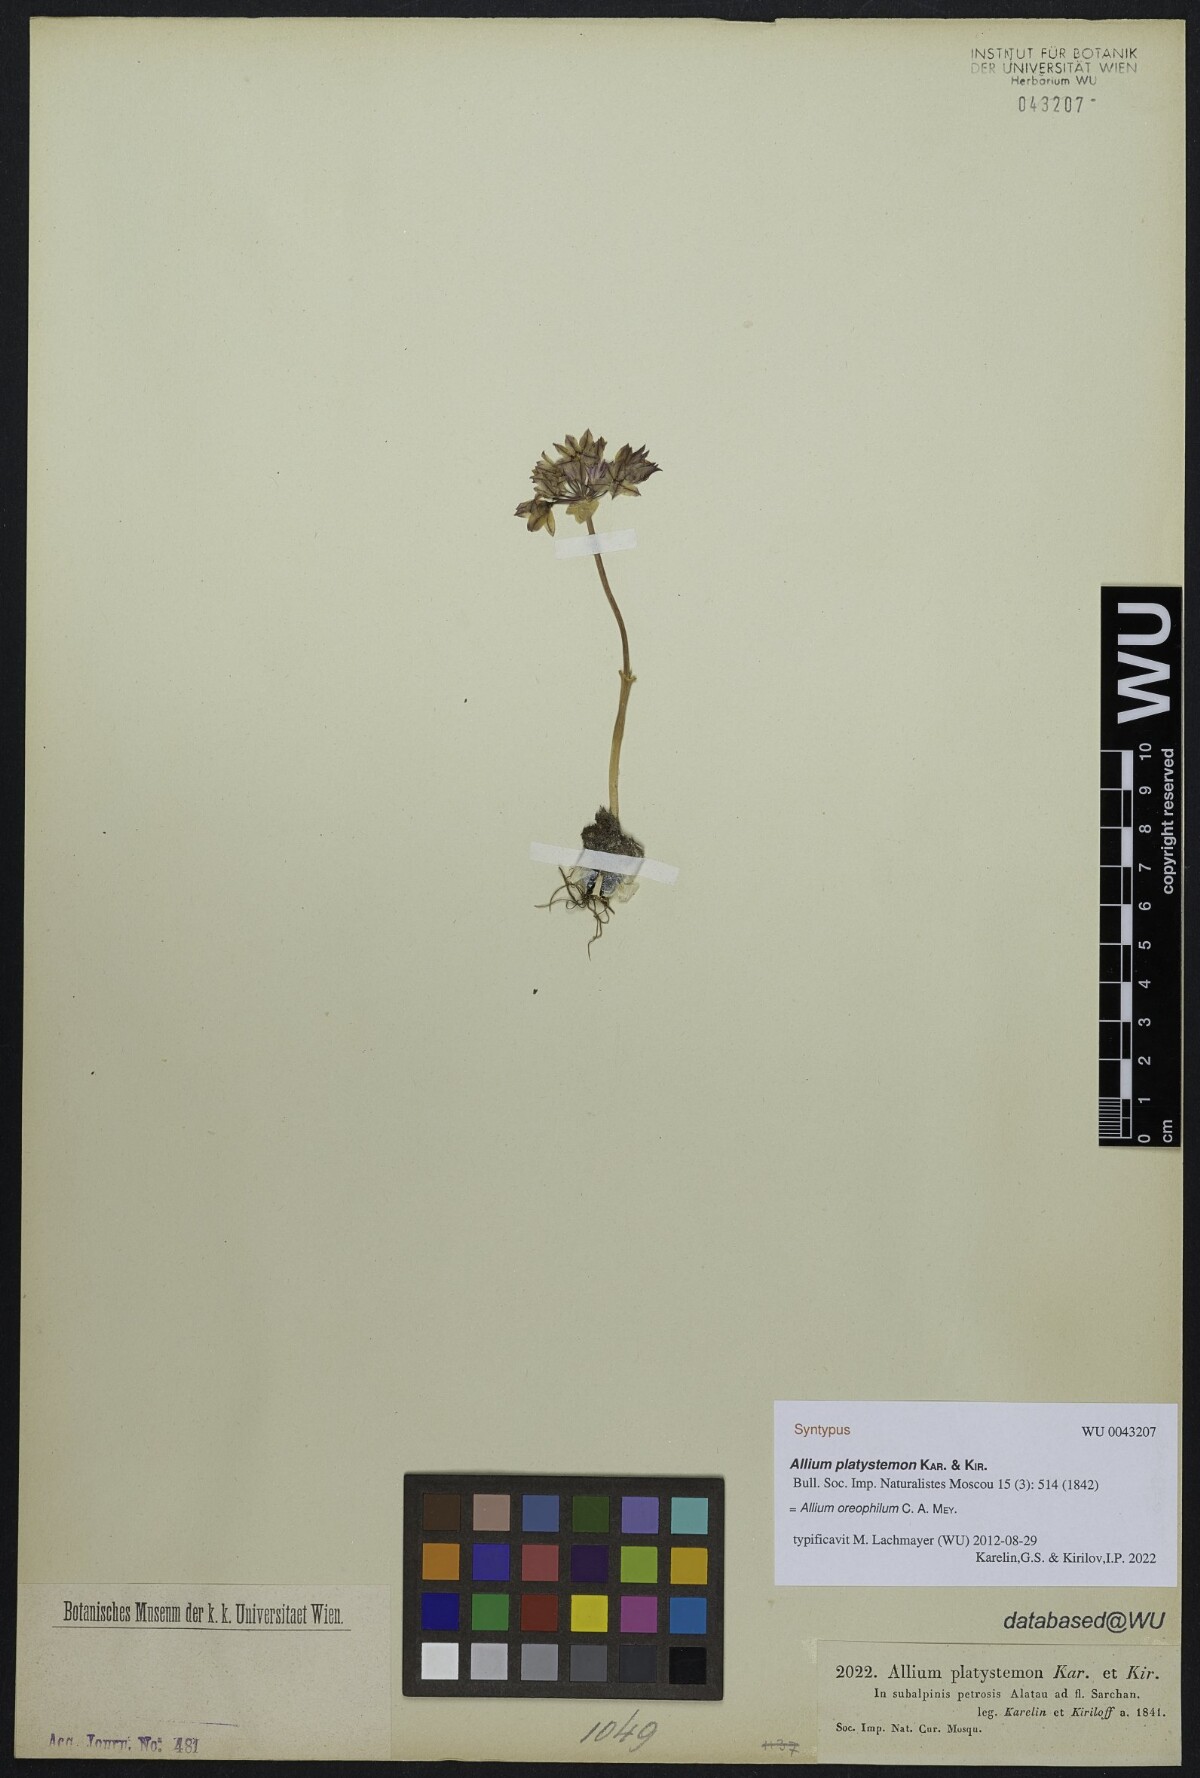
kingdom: Plantae
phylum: Tracheophyta
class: Liliopsida
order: Asparagales
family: Amaryllidaceae
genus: Allium
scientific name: Allium oreophilum
